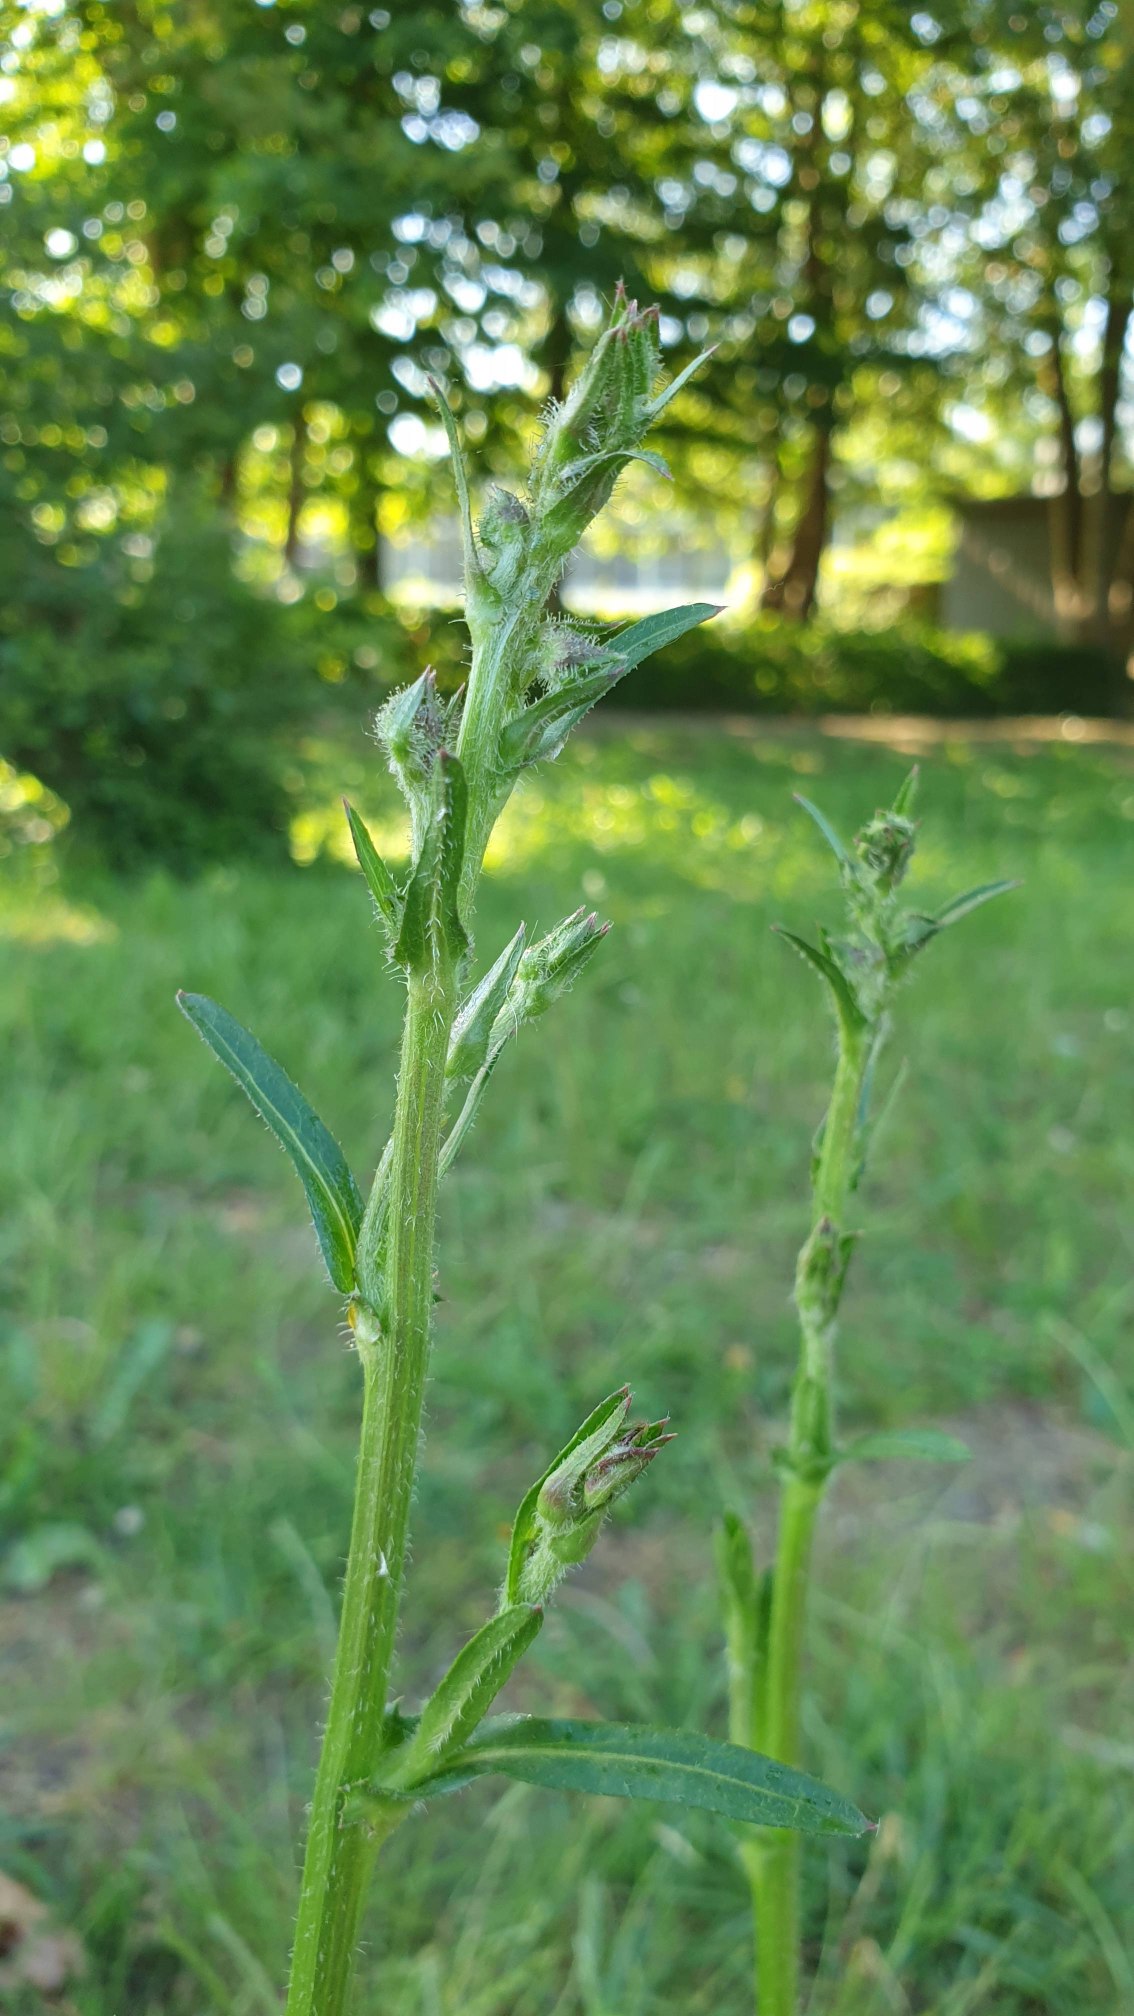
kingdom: Plantae
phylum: Tracheophyta
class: Magnoliopsida
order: Asterales
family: Asteraceae
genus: Cichorium
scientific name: Cichorium intybus
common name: Cikorie
